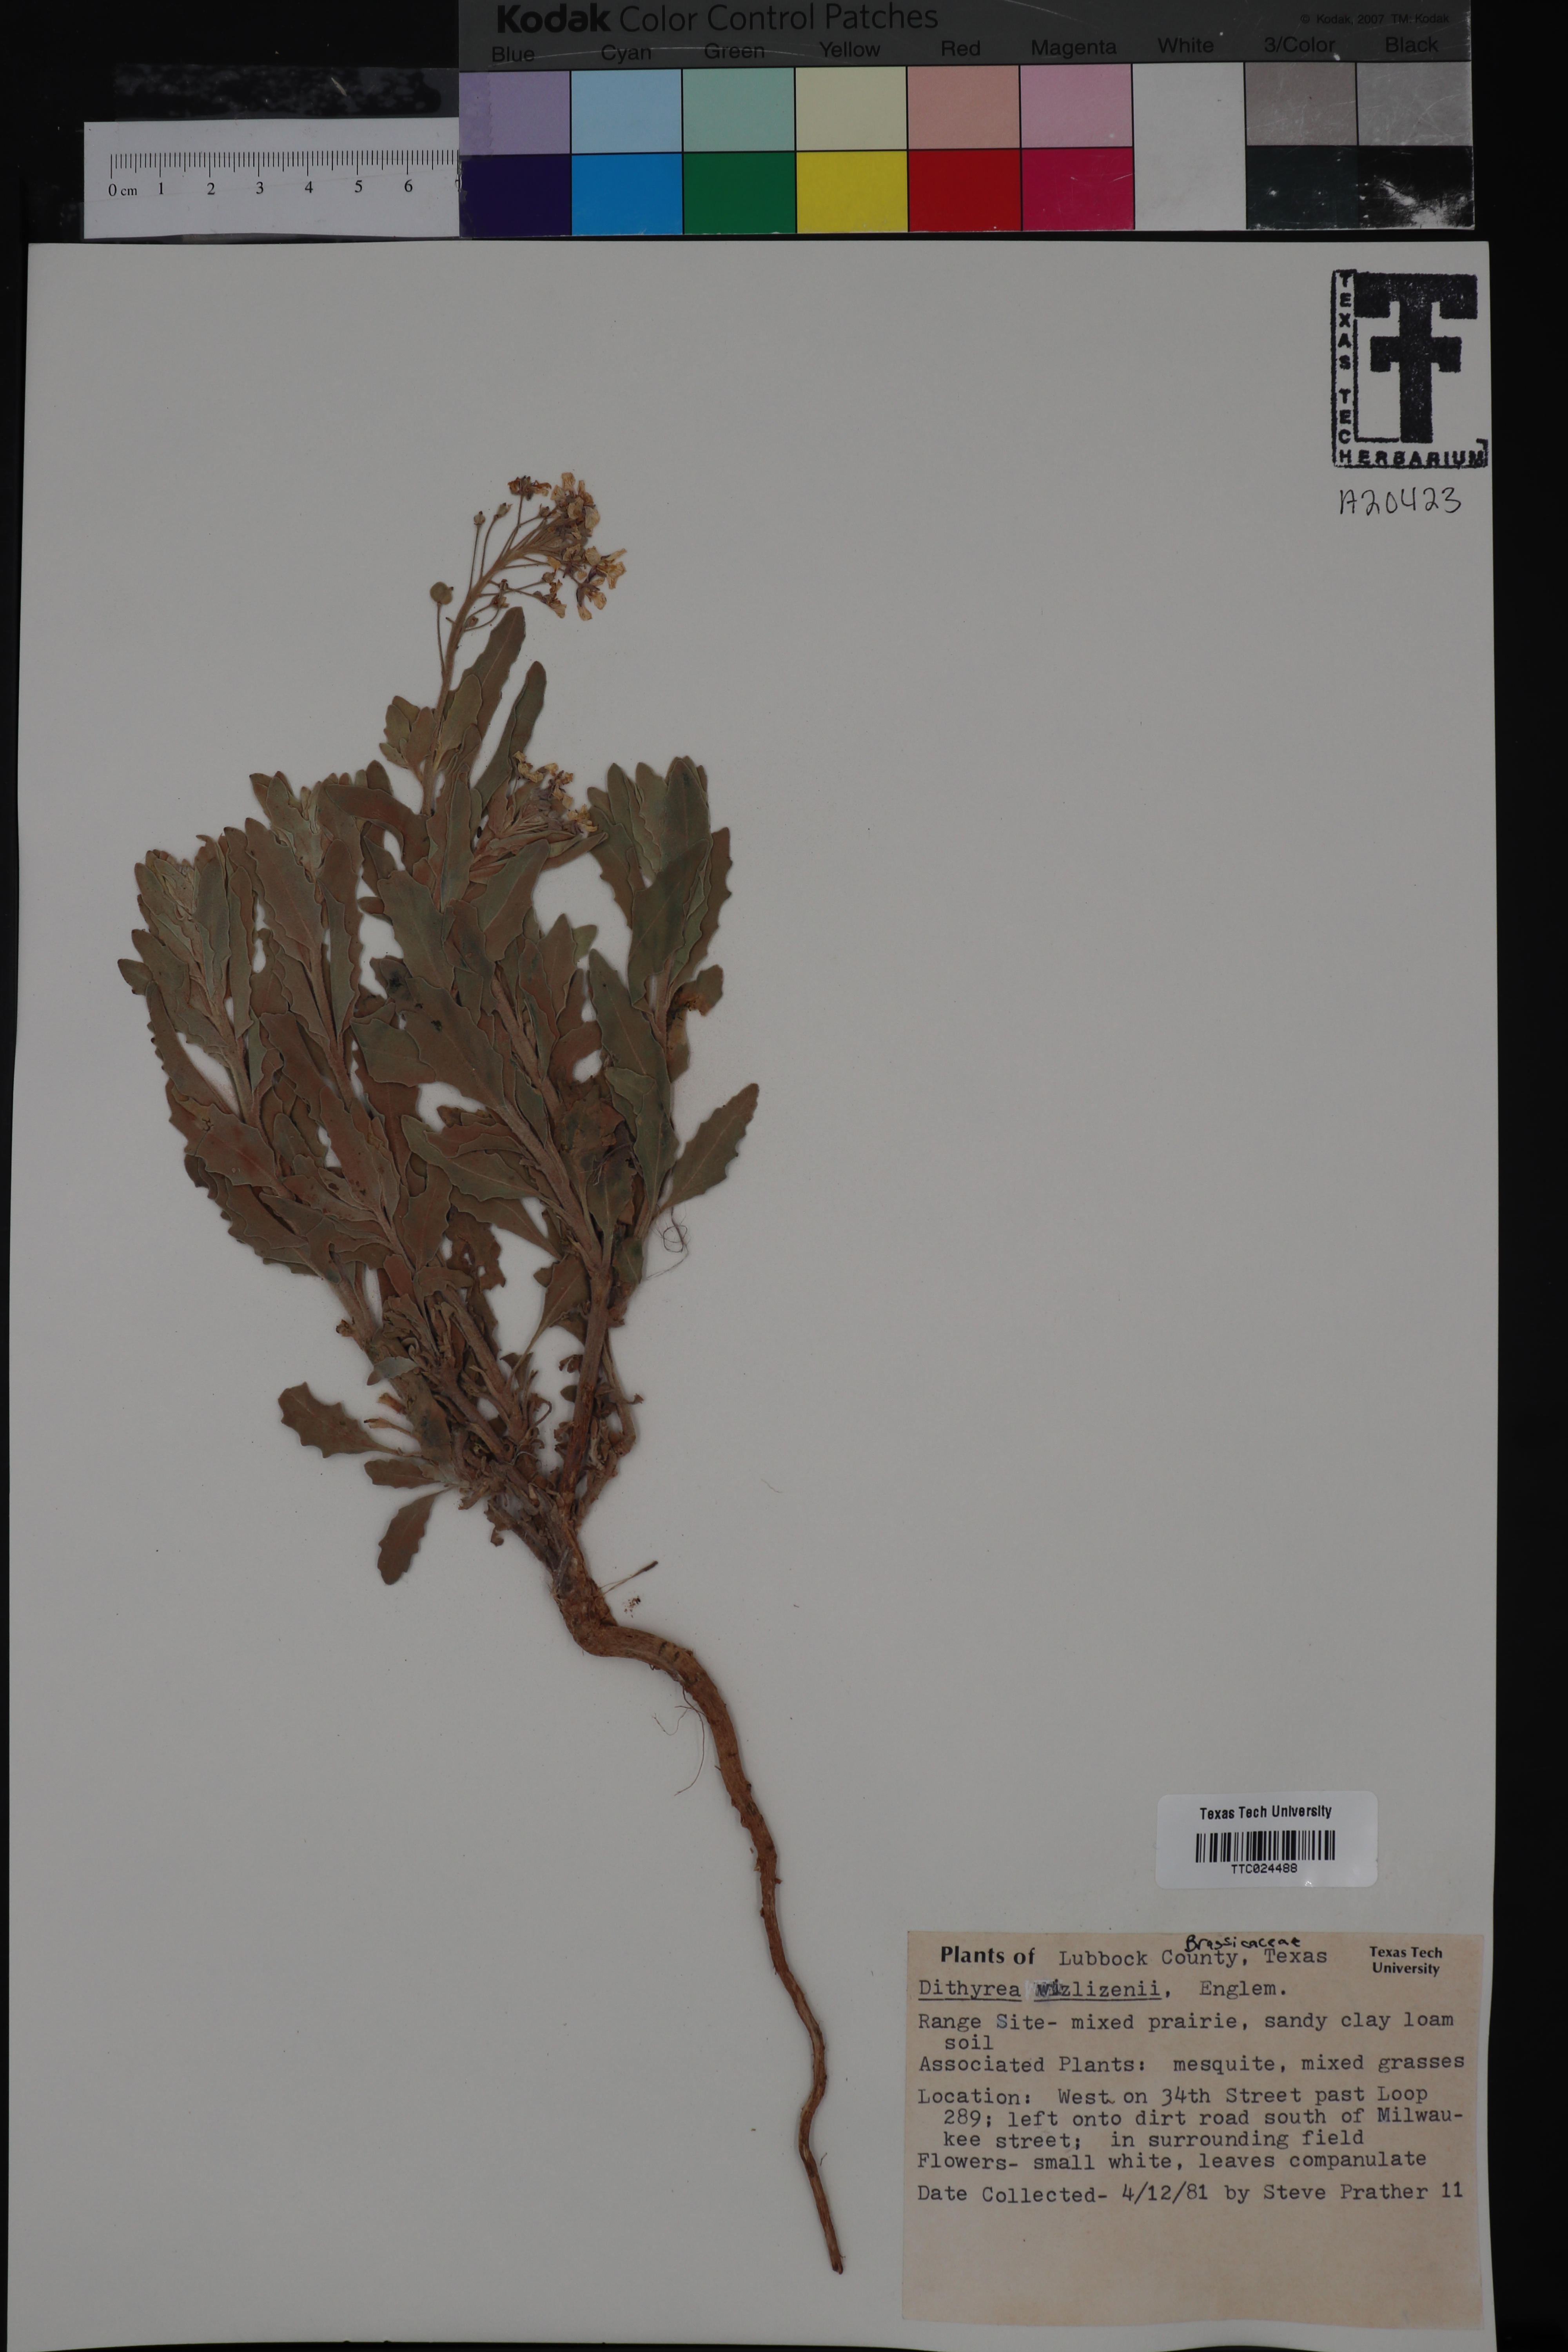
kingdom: Plantae
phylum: Tracheophyta
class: Magnoliopsida
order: Brassicales
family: Brassicaceae
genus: Dimorphocarpa
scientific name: Dimorphocarpa wislizenii
